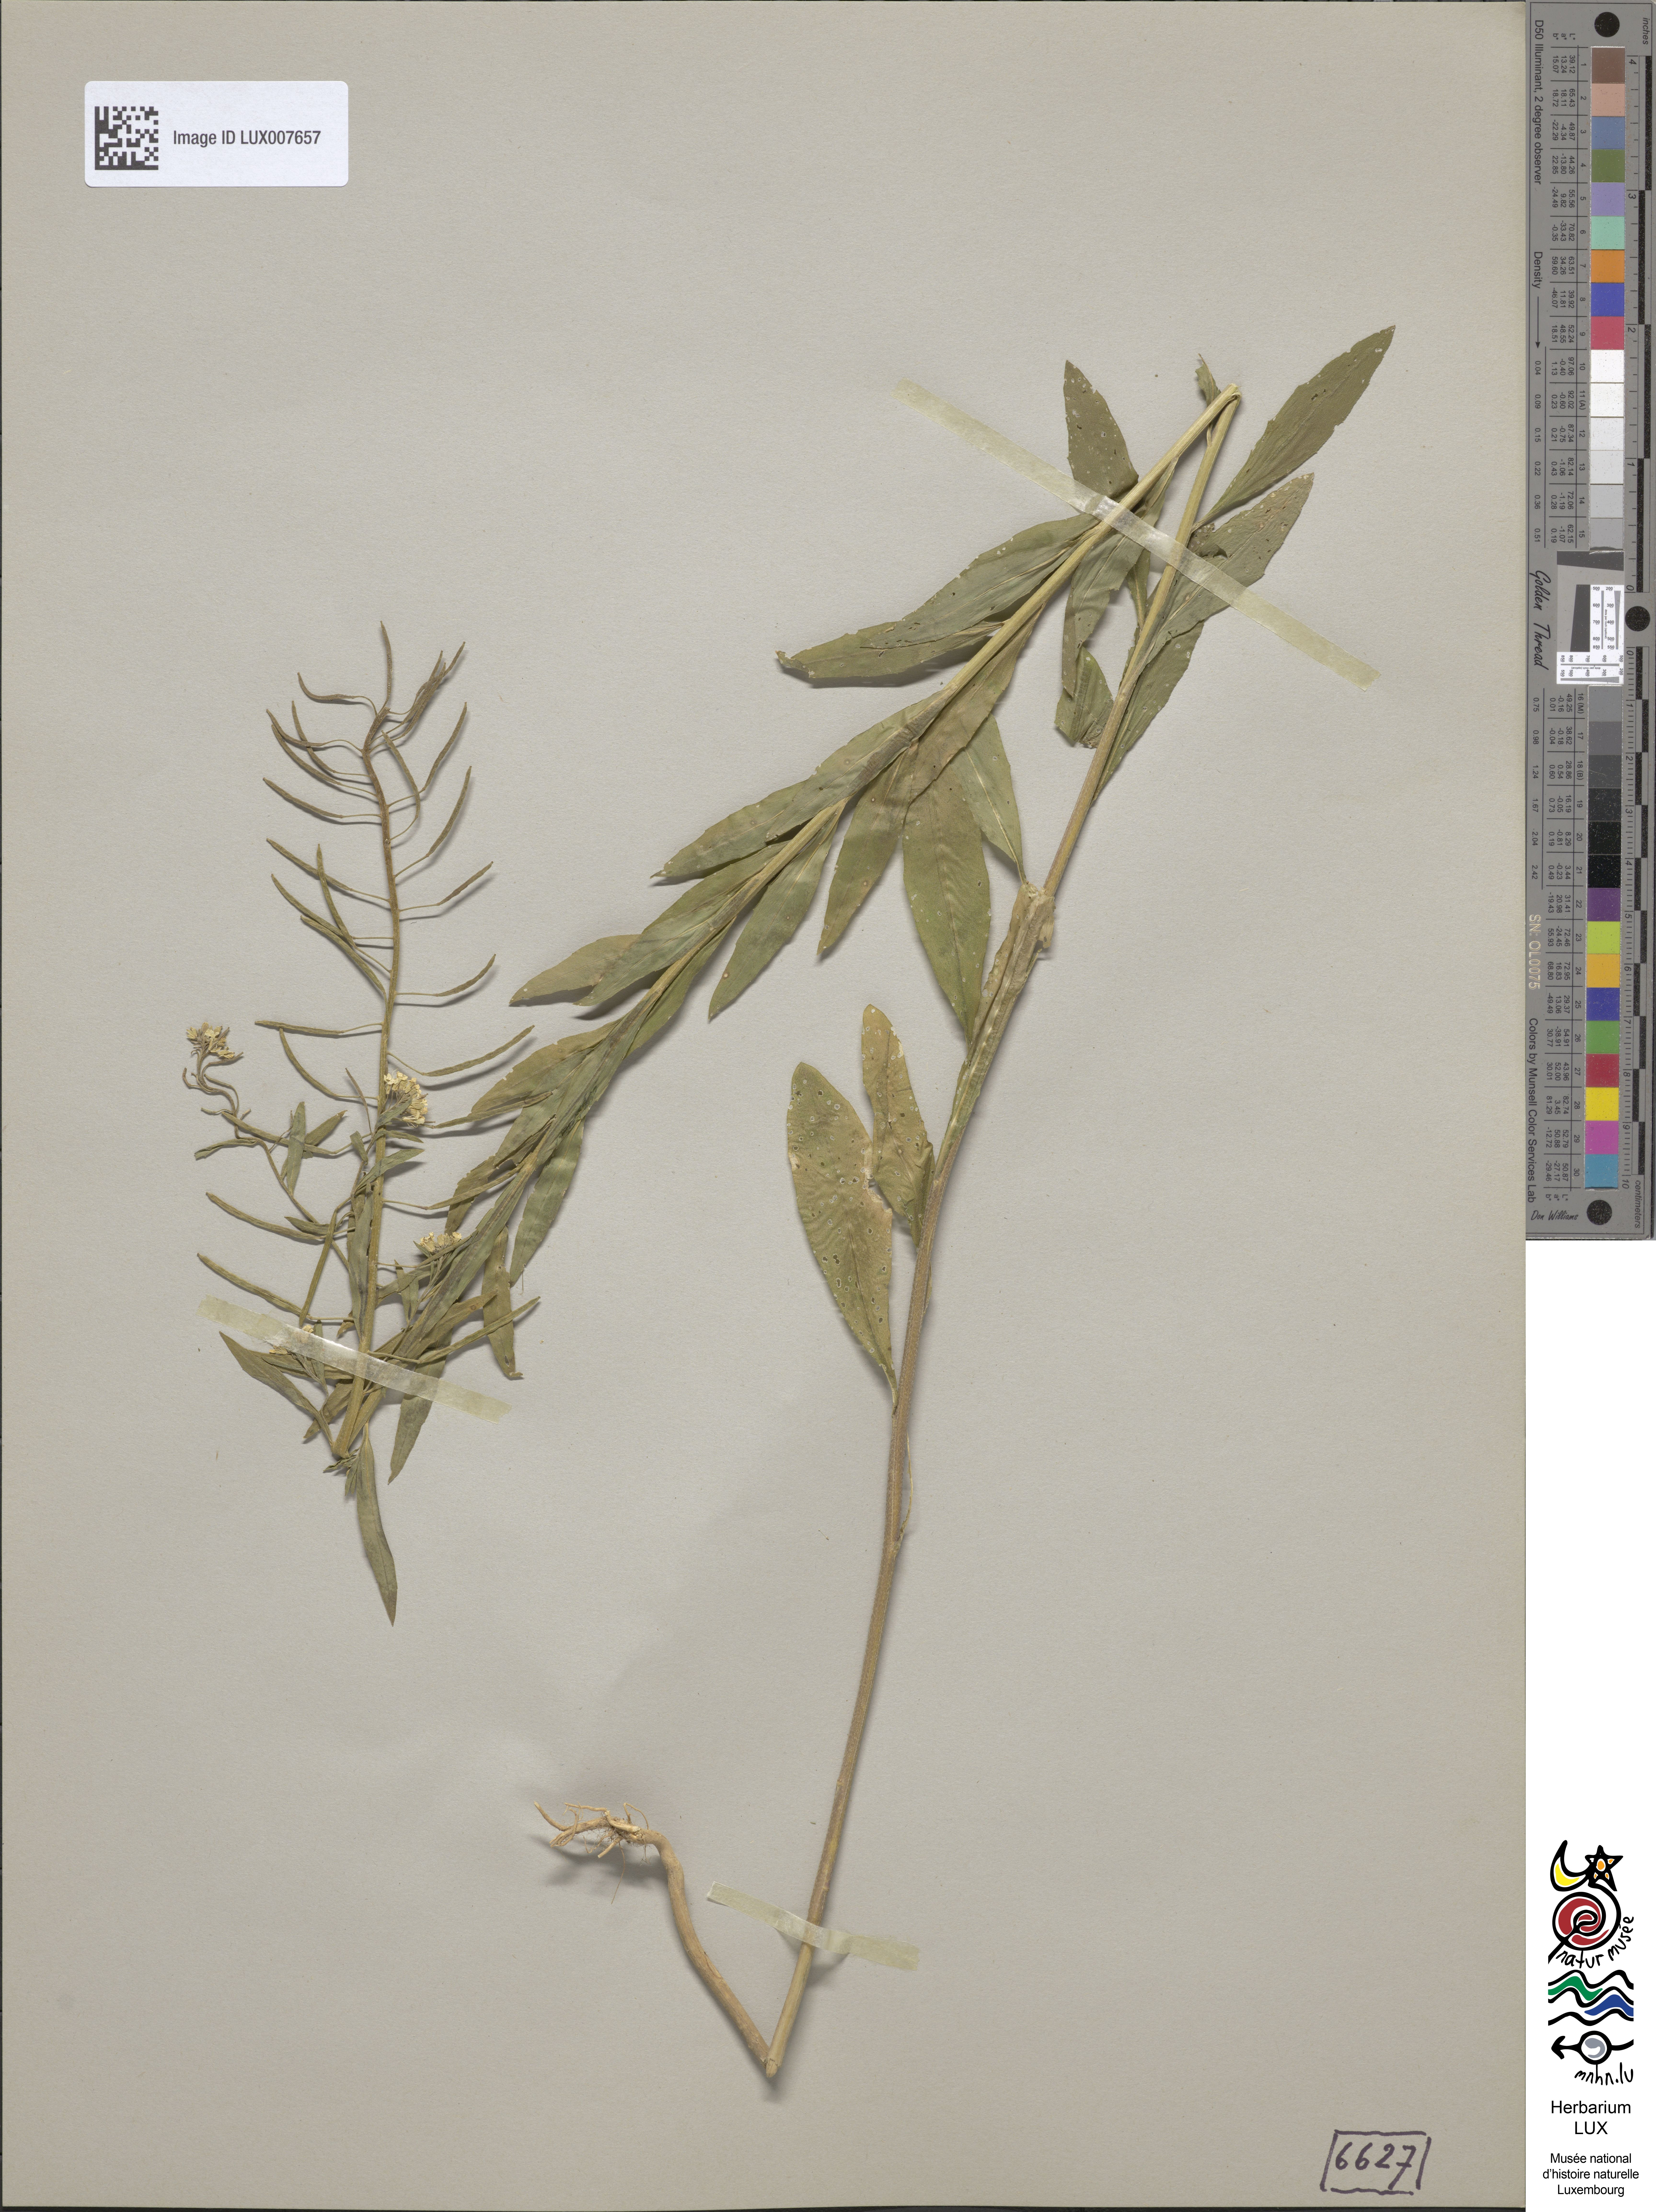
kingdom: Plantae
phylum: Tracheophyta
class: Magnoliopsida
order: Brassicales
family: Brassicaceae
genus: Erysimum
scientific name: Erysimum cheiranthoides
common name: Treacle mustard
